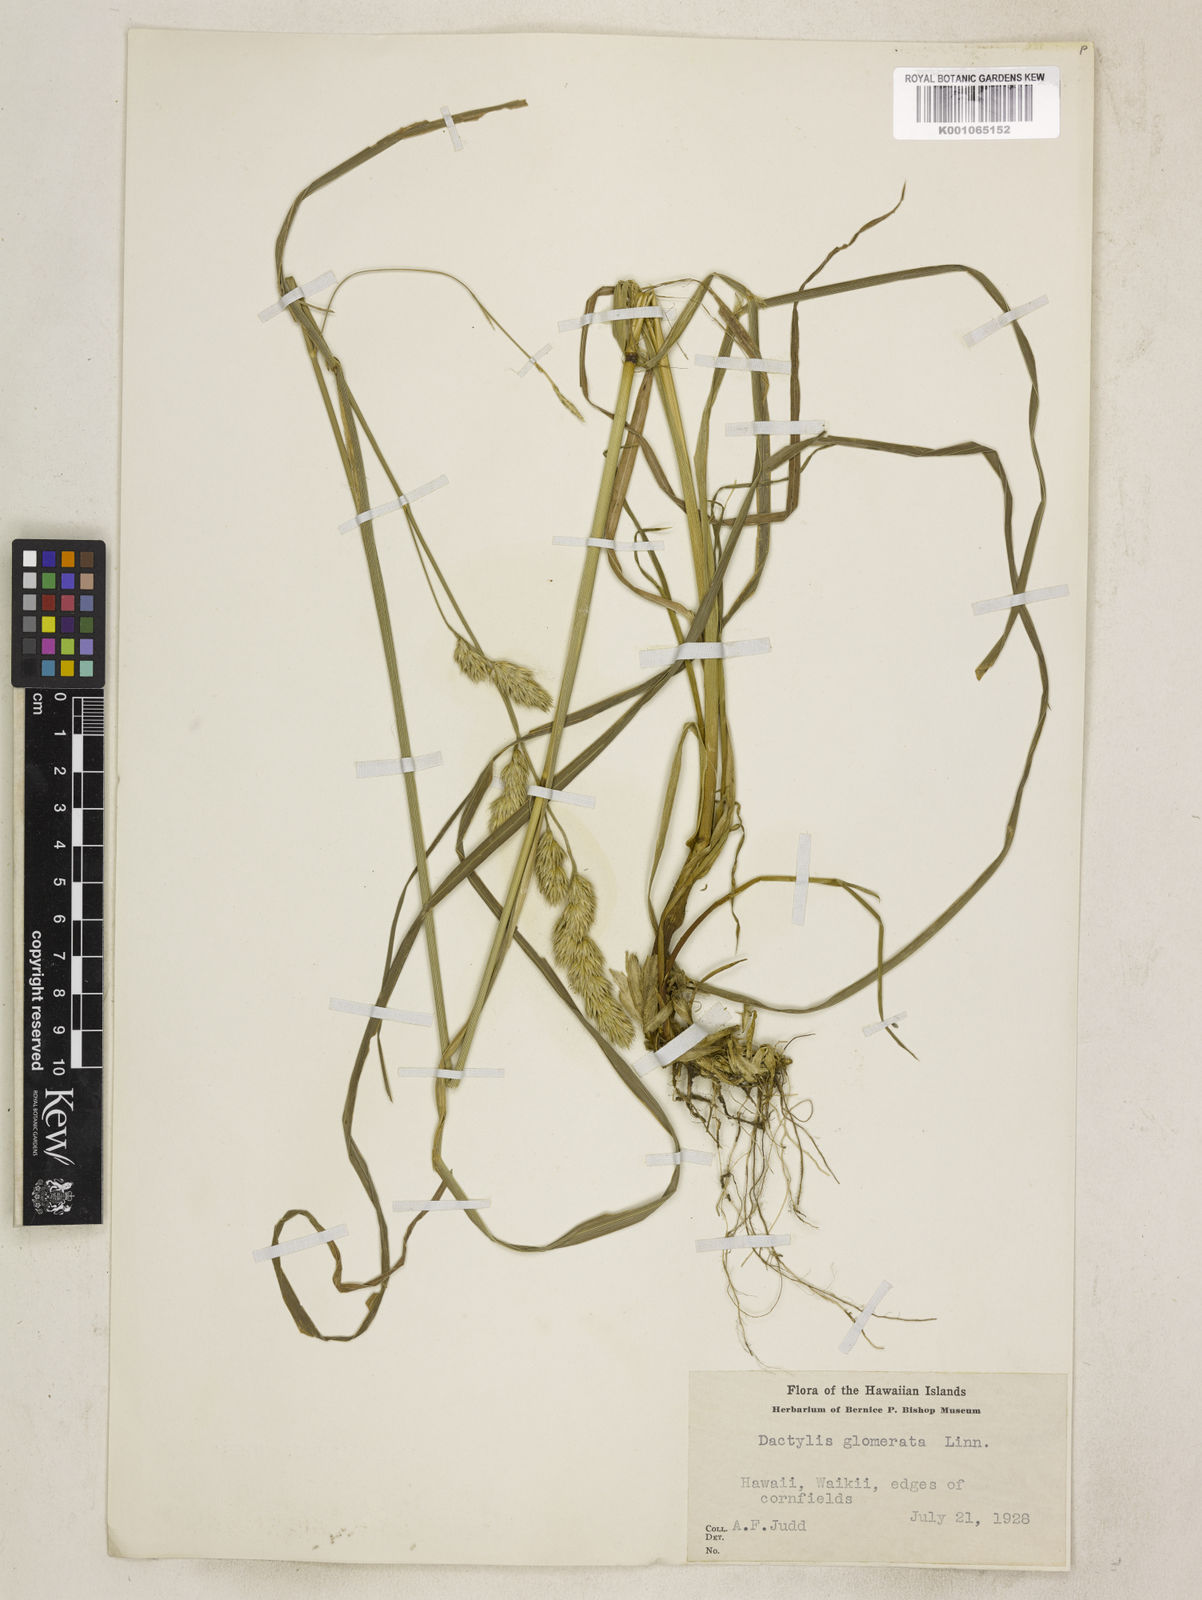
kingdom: Plantae
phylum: Tracheophyta
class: Liliopsida
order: Poales
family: Poaceae
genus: Dactylis
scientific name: Dactylis glomerata
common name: Orchardgrass
